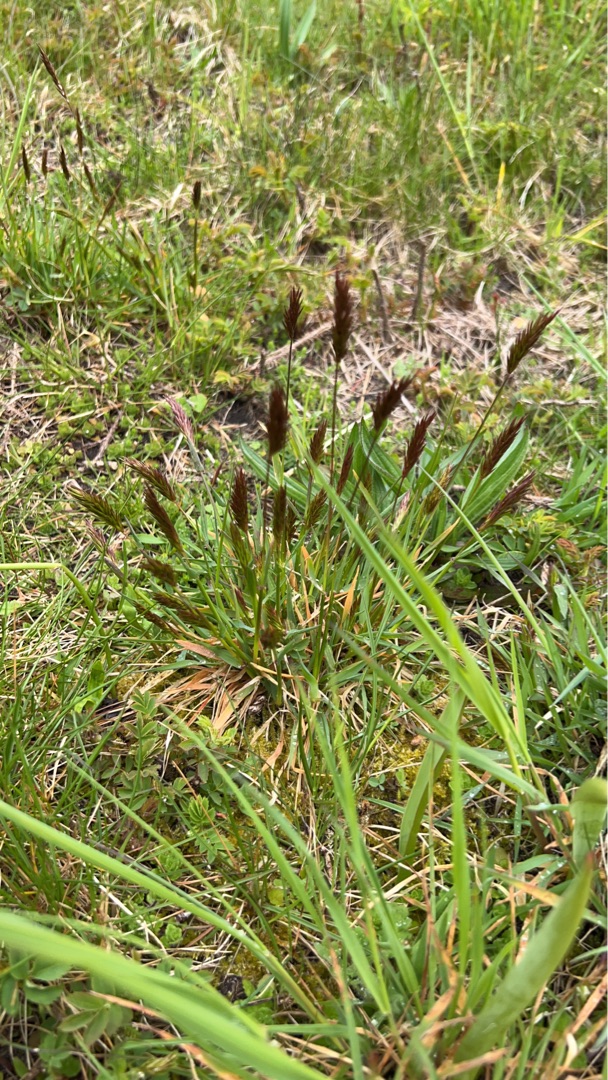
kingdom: Plantae
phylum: Tracheophyta
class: Liliopsida
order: Poales
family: Poaceae
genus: Anthoxanthum
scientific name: Anthoxanthum odoratum
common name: Vellugtende gulaks
